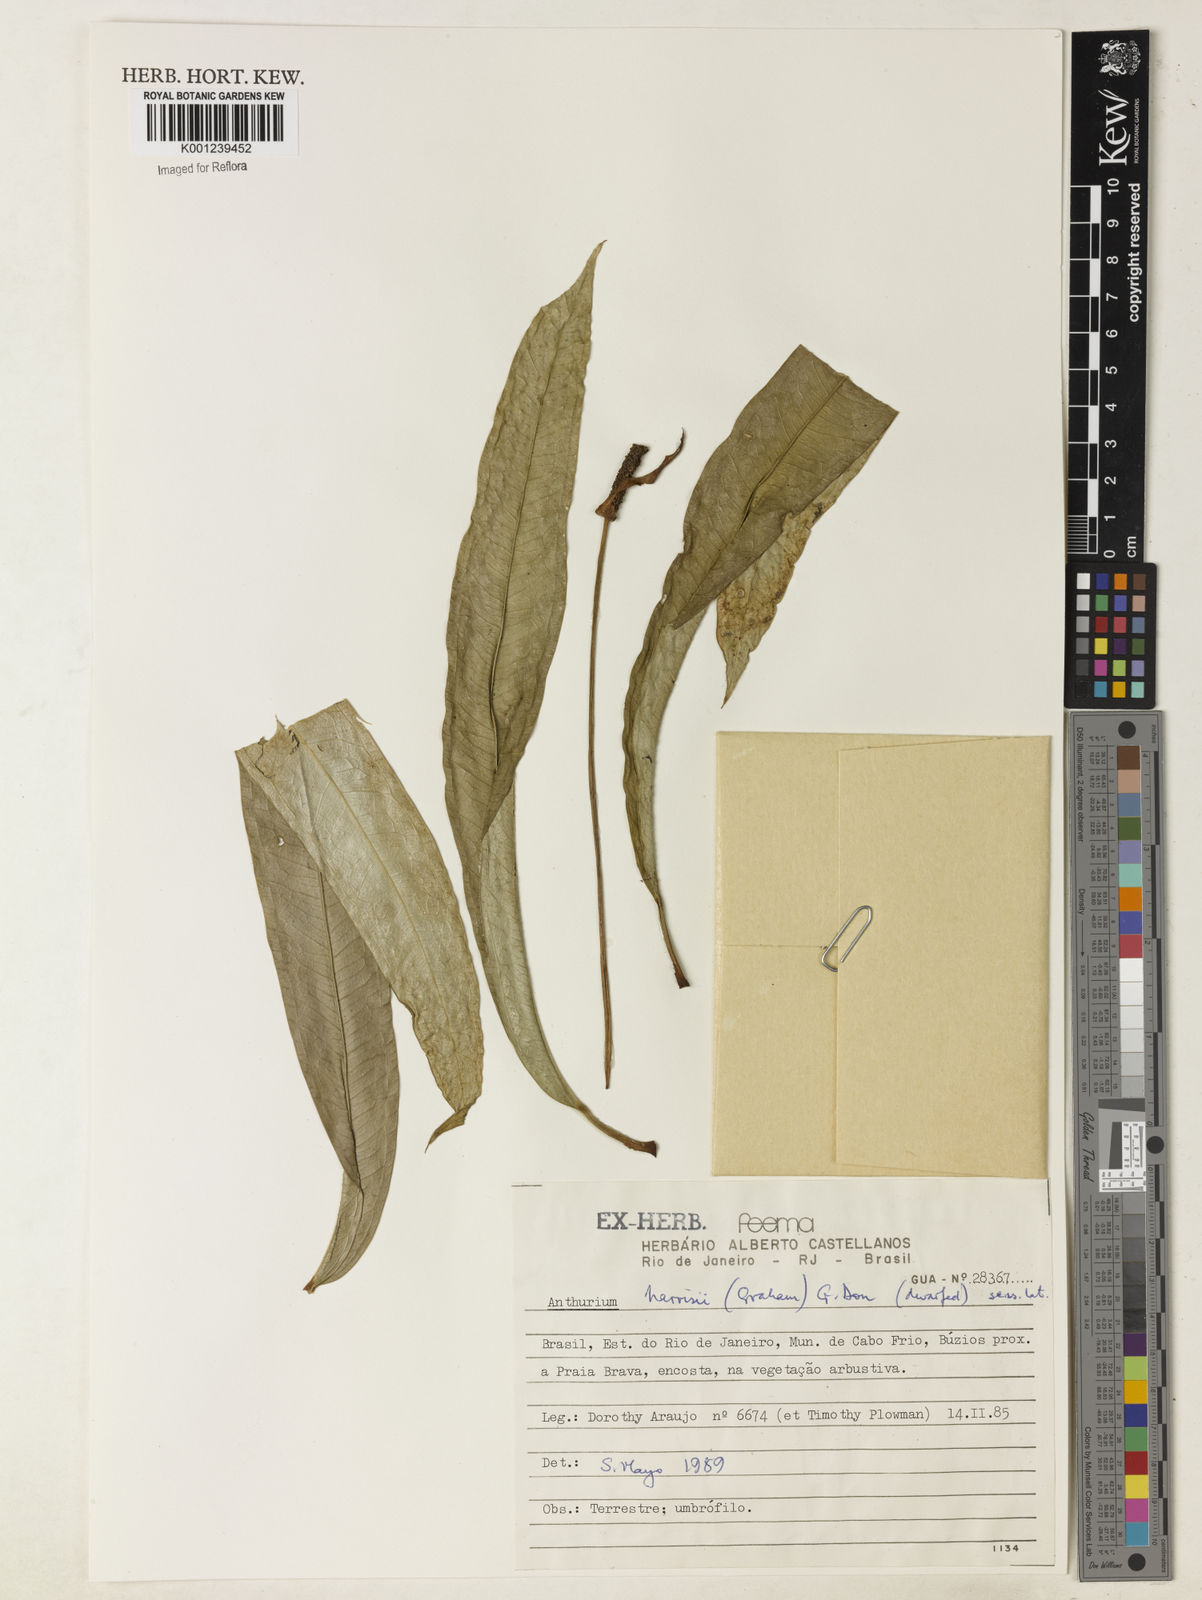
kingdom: Plantae
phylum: Tracheophyta
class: Liliopsida
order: Alismatales
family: Araceae
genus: Anthurium
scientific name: Anthurium harrisii
